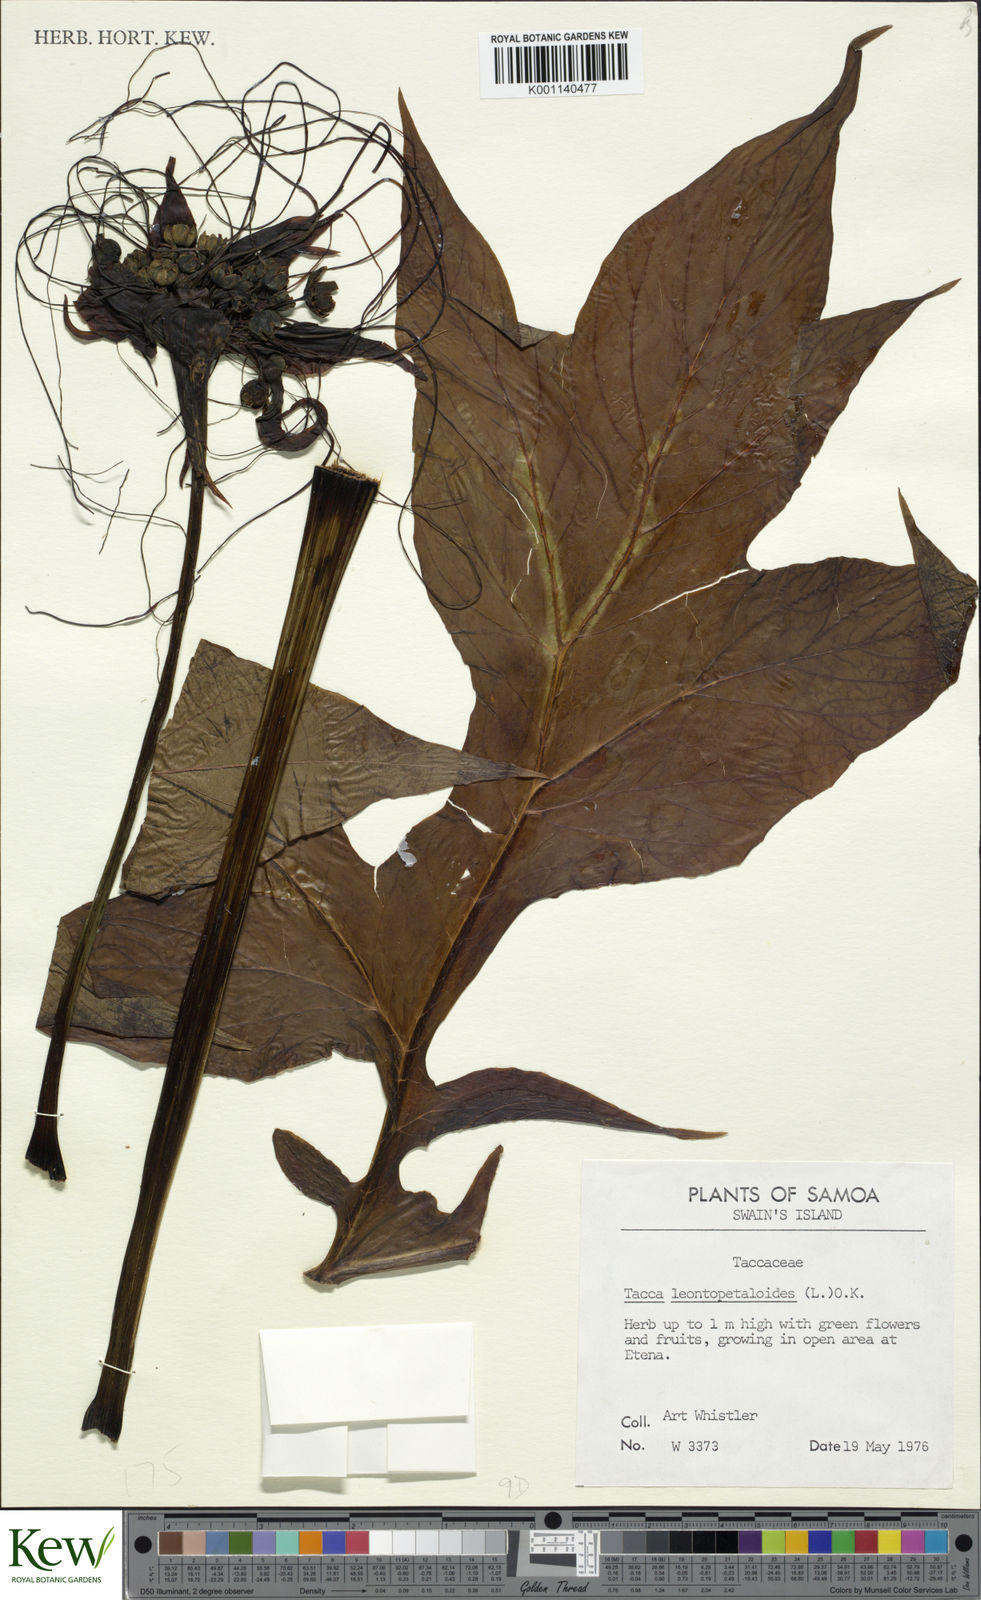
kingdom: Plantae
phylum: Tracheophyta
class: Liliopsida
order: Dioscoreales
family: Dioscoreaceae
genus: Tacca
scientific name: Tacca leontopetaloides
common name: Arrowroot
